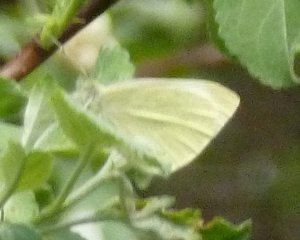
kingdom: Animalia
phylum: Arthropoda
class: Insecta
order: Lepidoptera
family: Pieridae
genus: Pieris
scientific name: Pieris rapae
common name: Cabbage White
